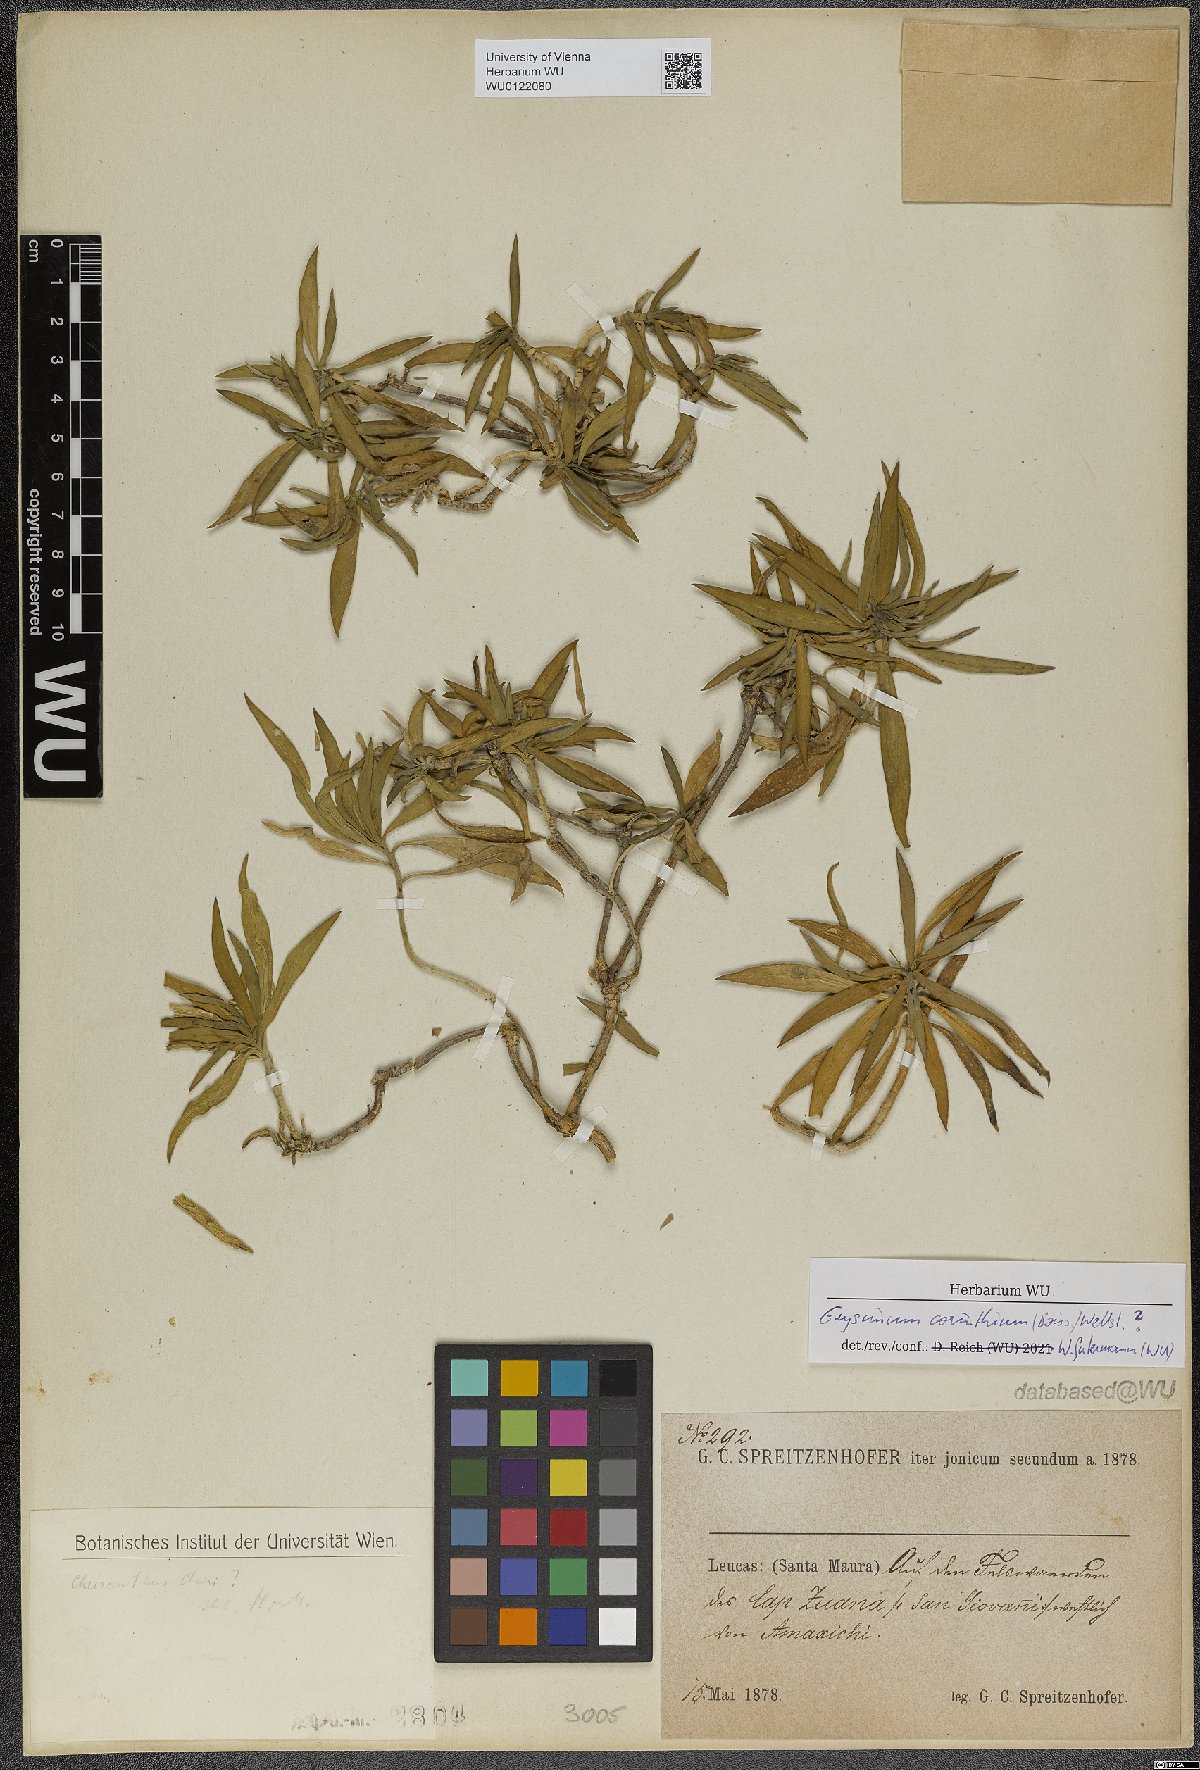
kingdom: Plantae
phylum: Tracheophyta
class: Magnoliopsida
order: Brassicales
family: Brassicaceae
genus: Erysimum
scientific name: Erysimum corinthium
